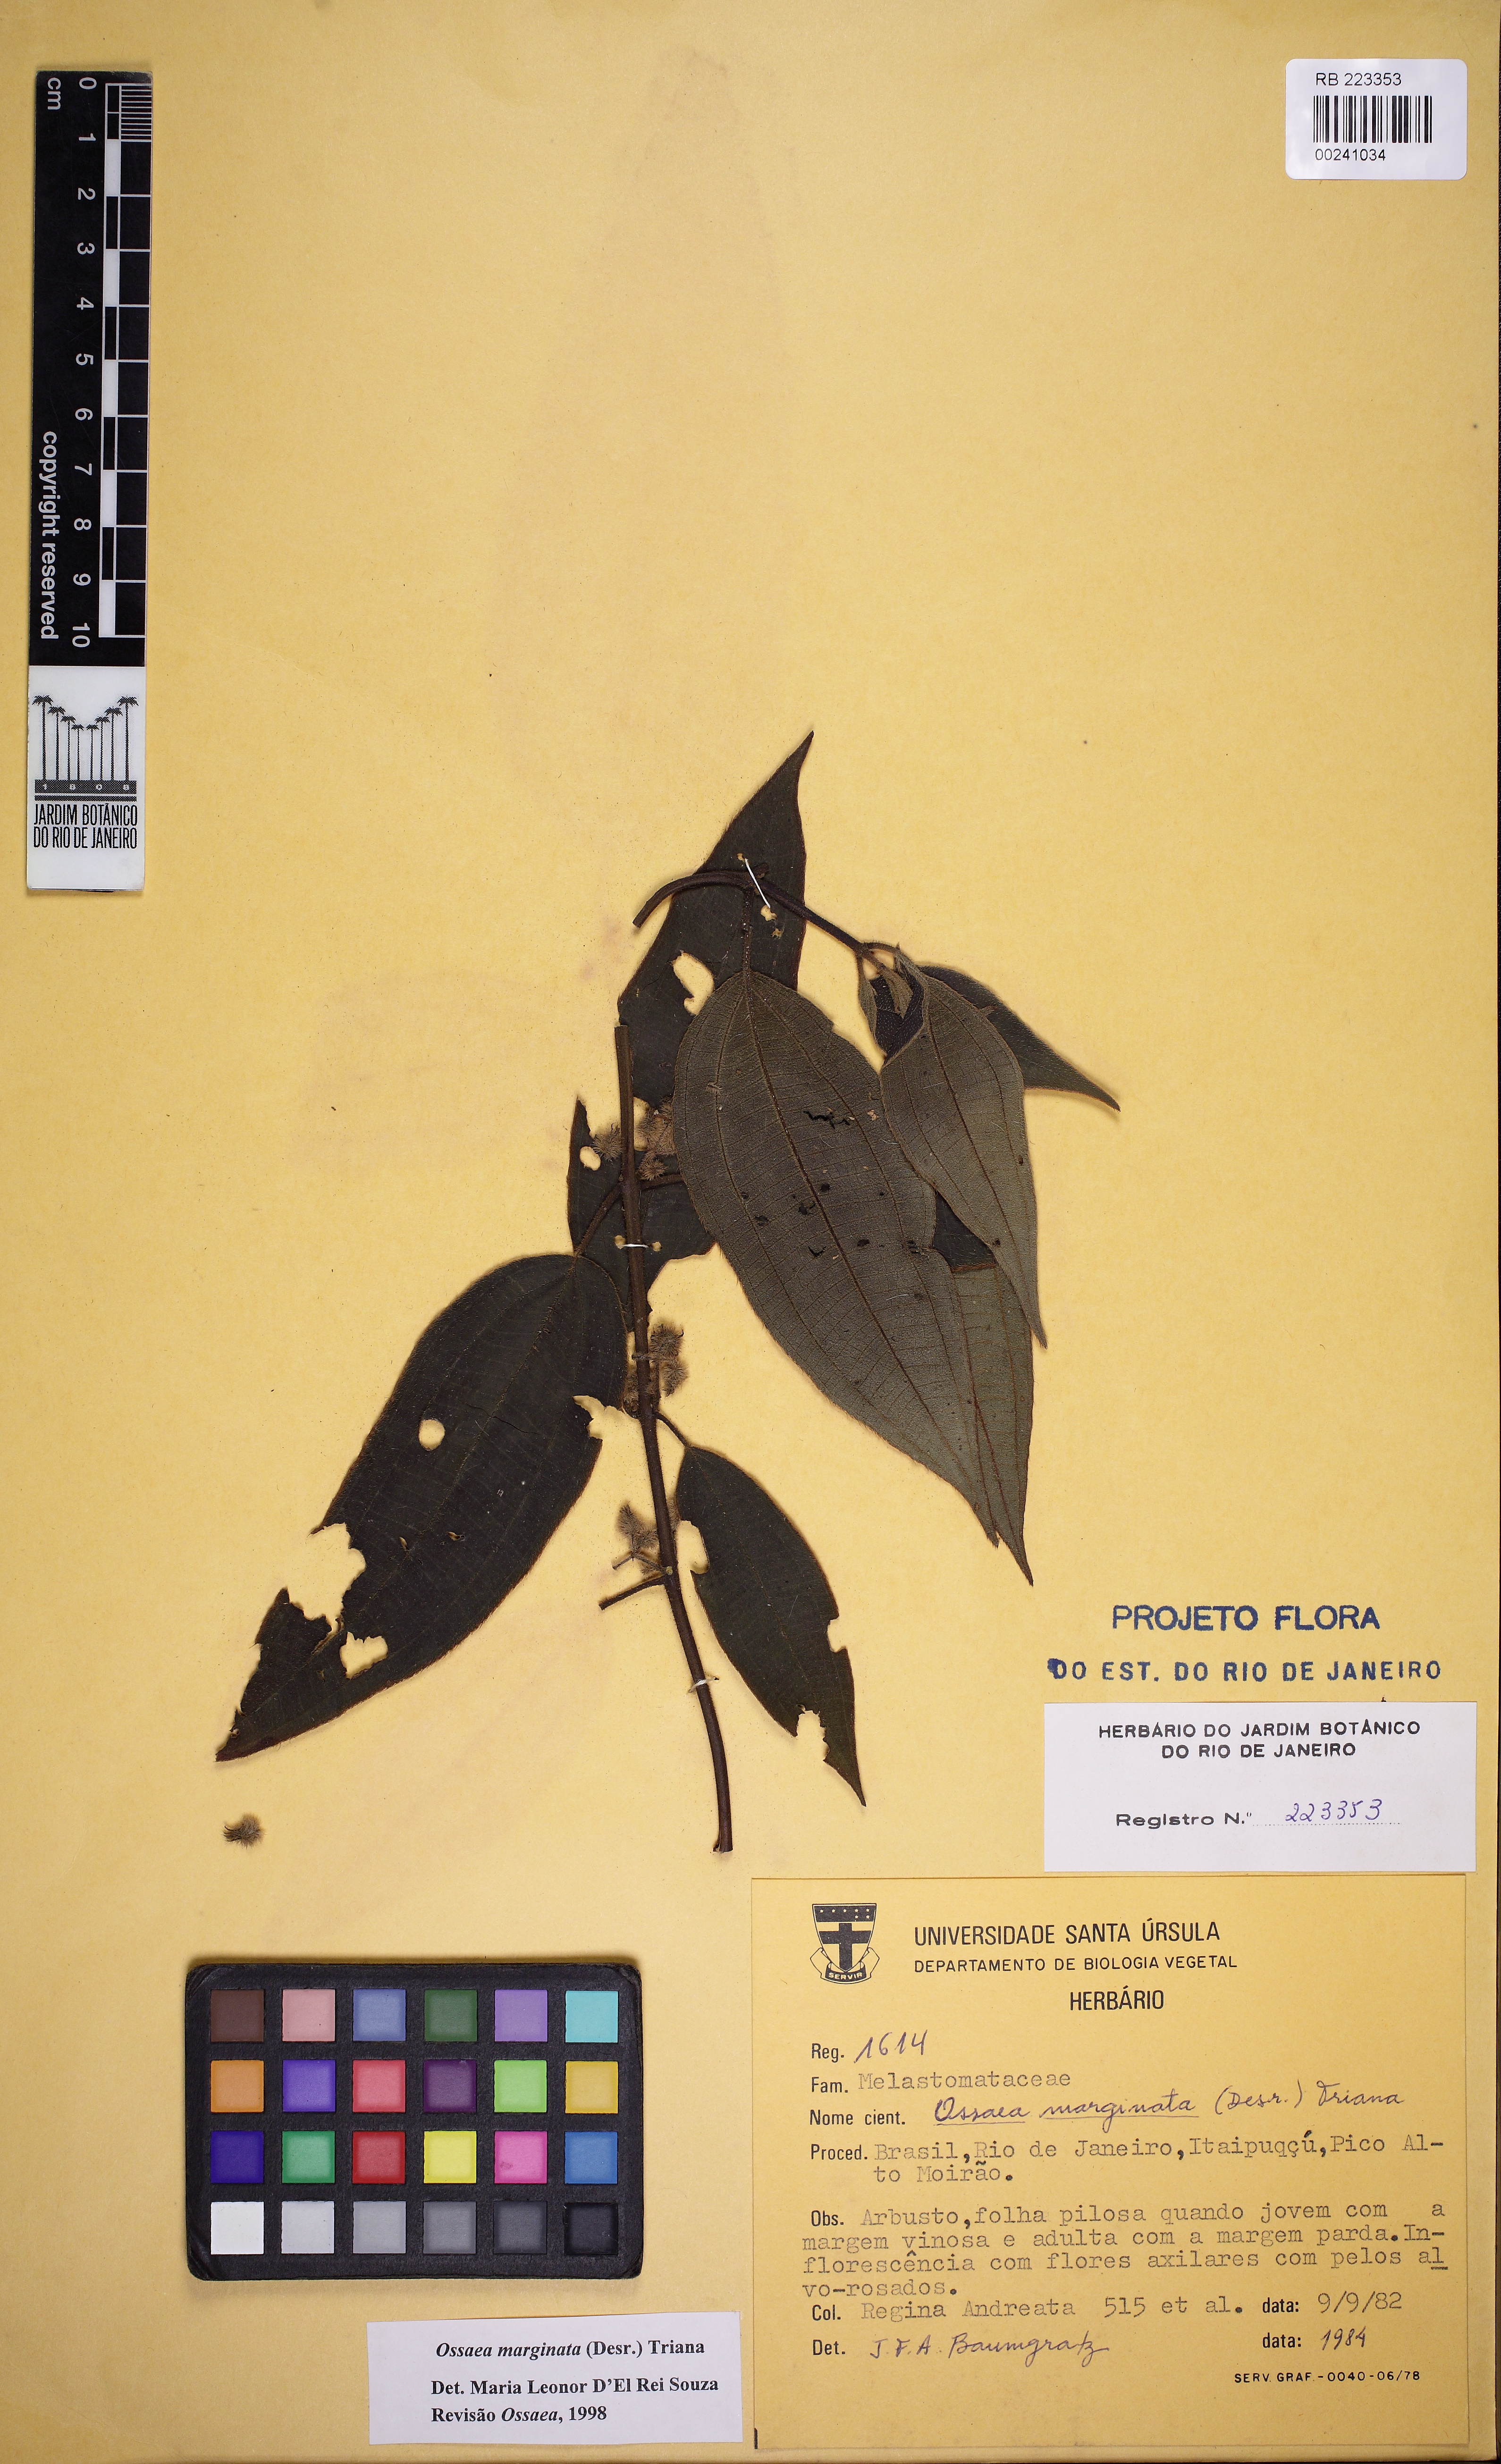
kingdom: Plantae
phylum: Tracheophyta
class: Magnoliopsida
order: Myrtales
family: Melastomataceae
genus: Miconia
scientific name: Miconia leamarginata
